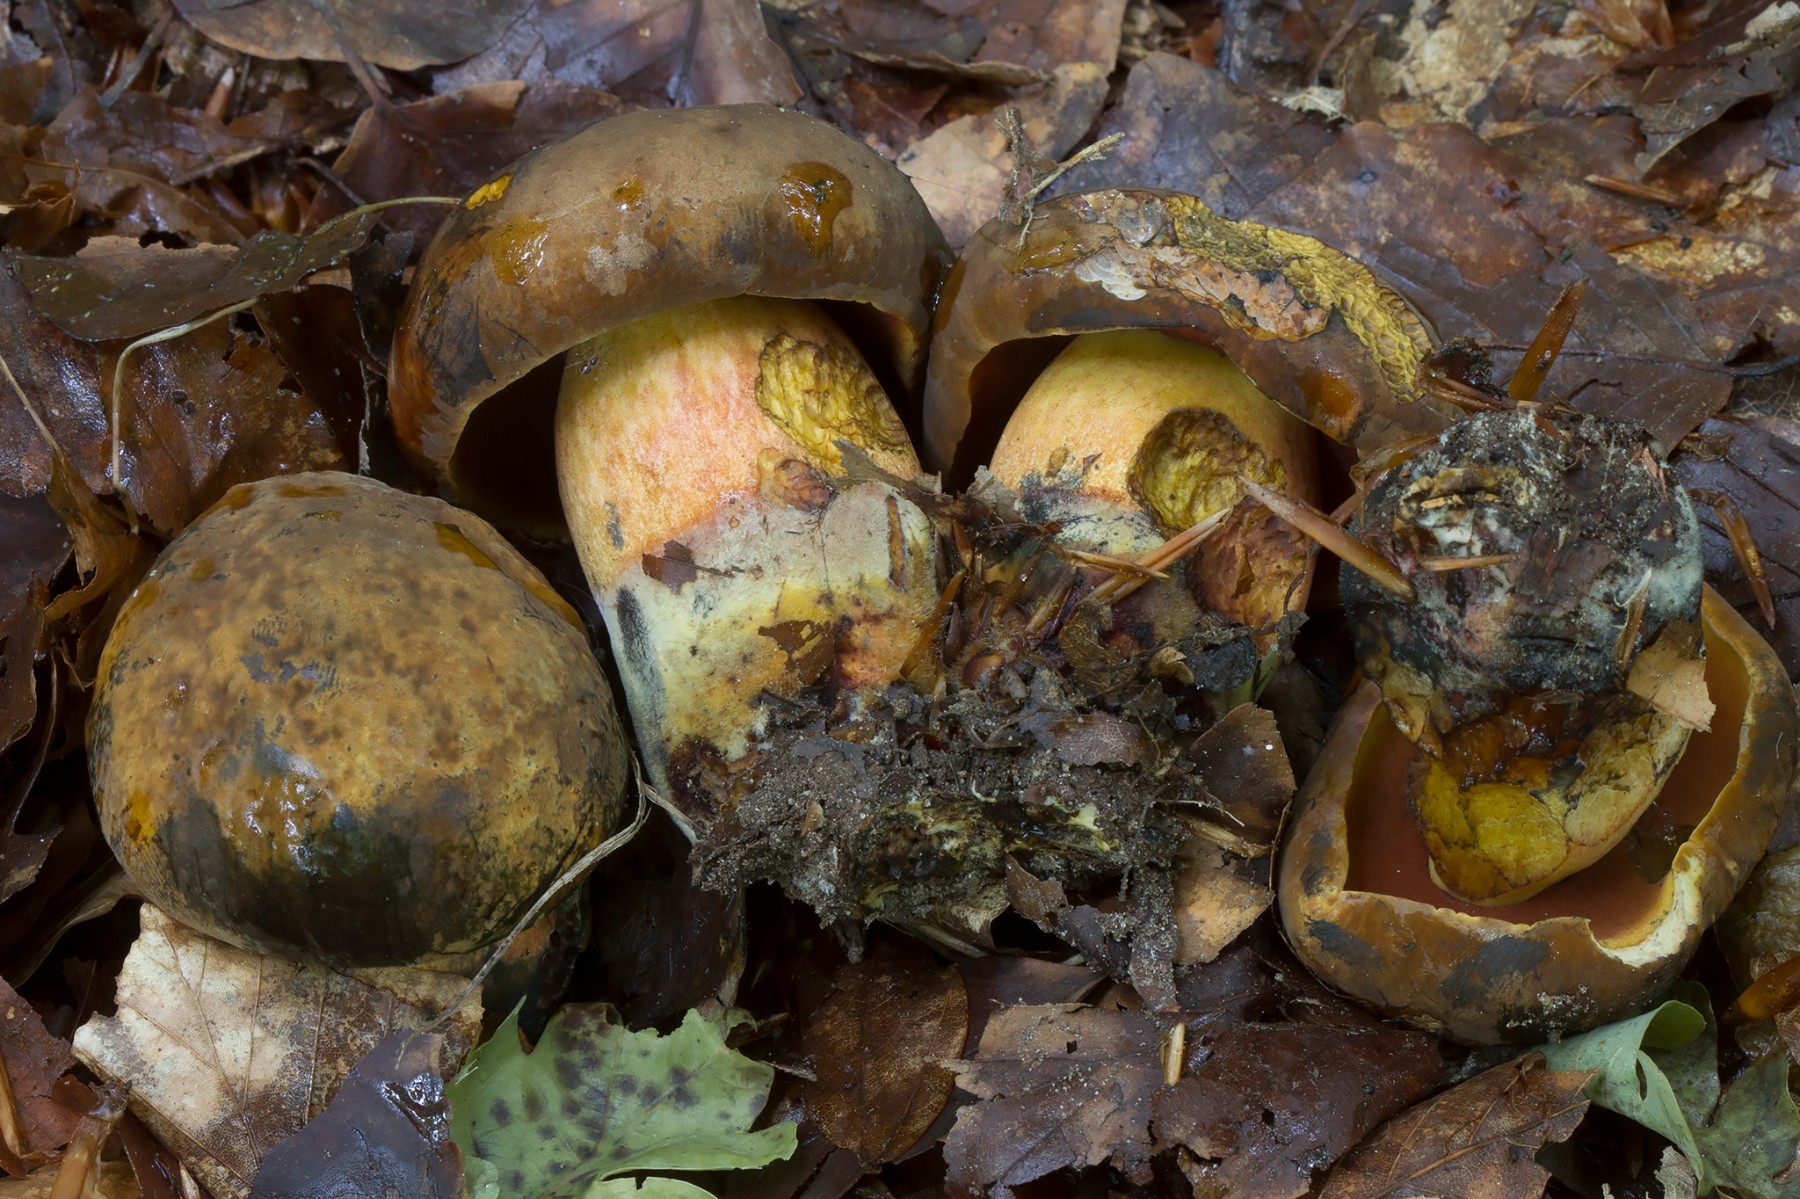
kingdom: Fungi
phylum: Basidiomycota
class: Agaricomycetes
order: Boletales
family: Boletaceae
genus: Neoboletus
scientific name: Neoboletus erythropus
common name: punktstokket indigorørhat
